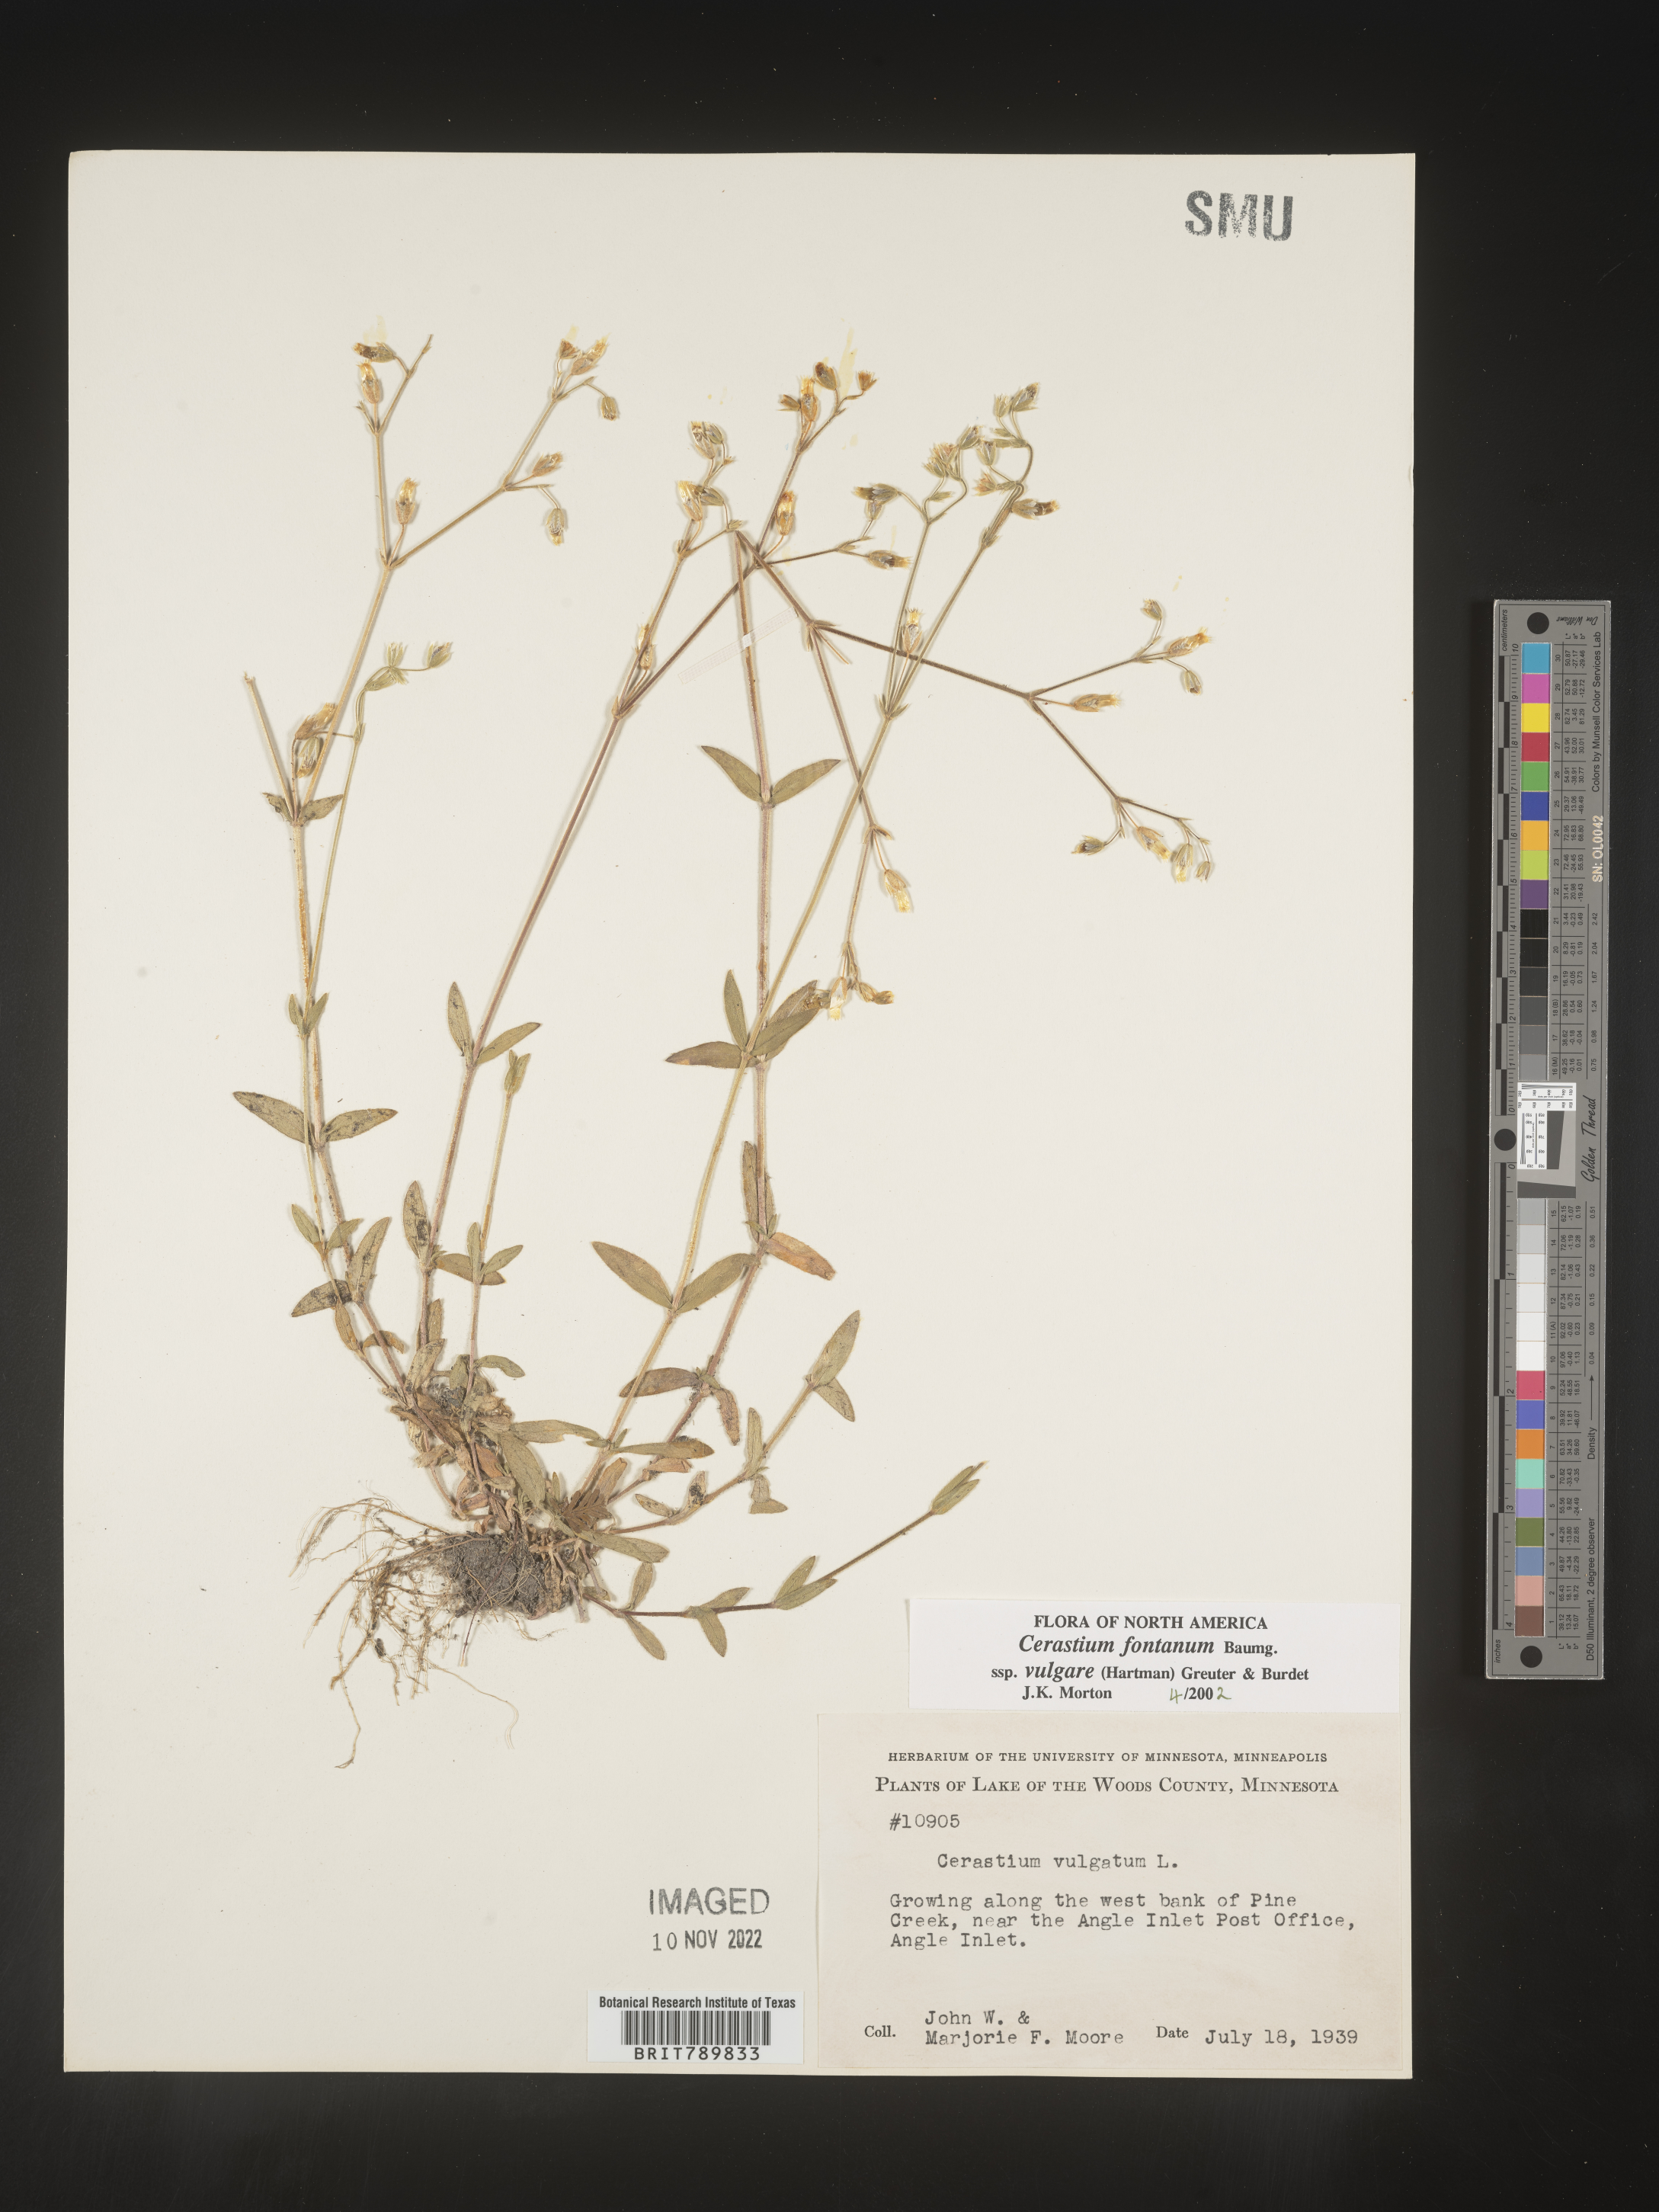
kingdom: Plantae
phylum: Tracheophyta
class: Magnoliopsida
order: Caryophyllales
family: Caryophyllaceae
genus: Cerastium
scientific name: Cerastium fontanum
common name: Common mouse-ear
